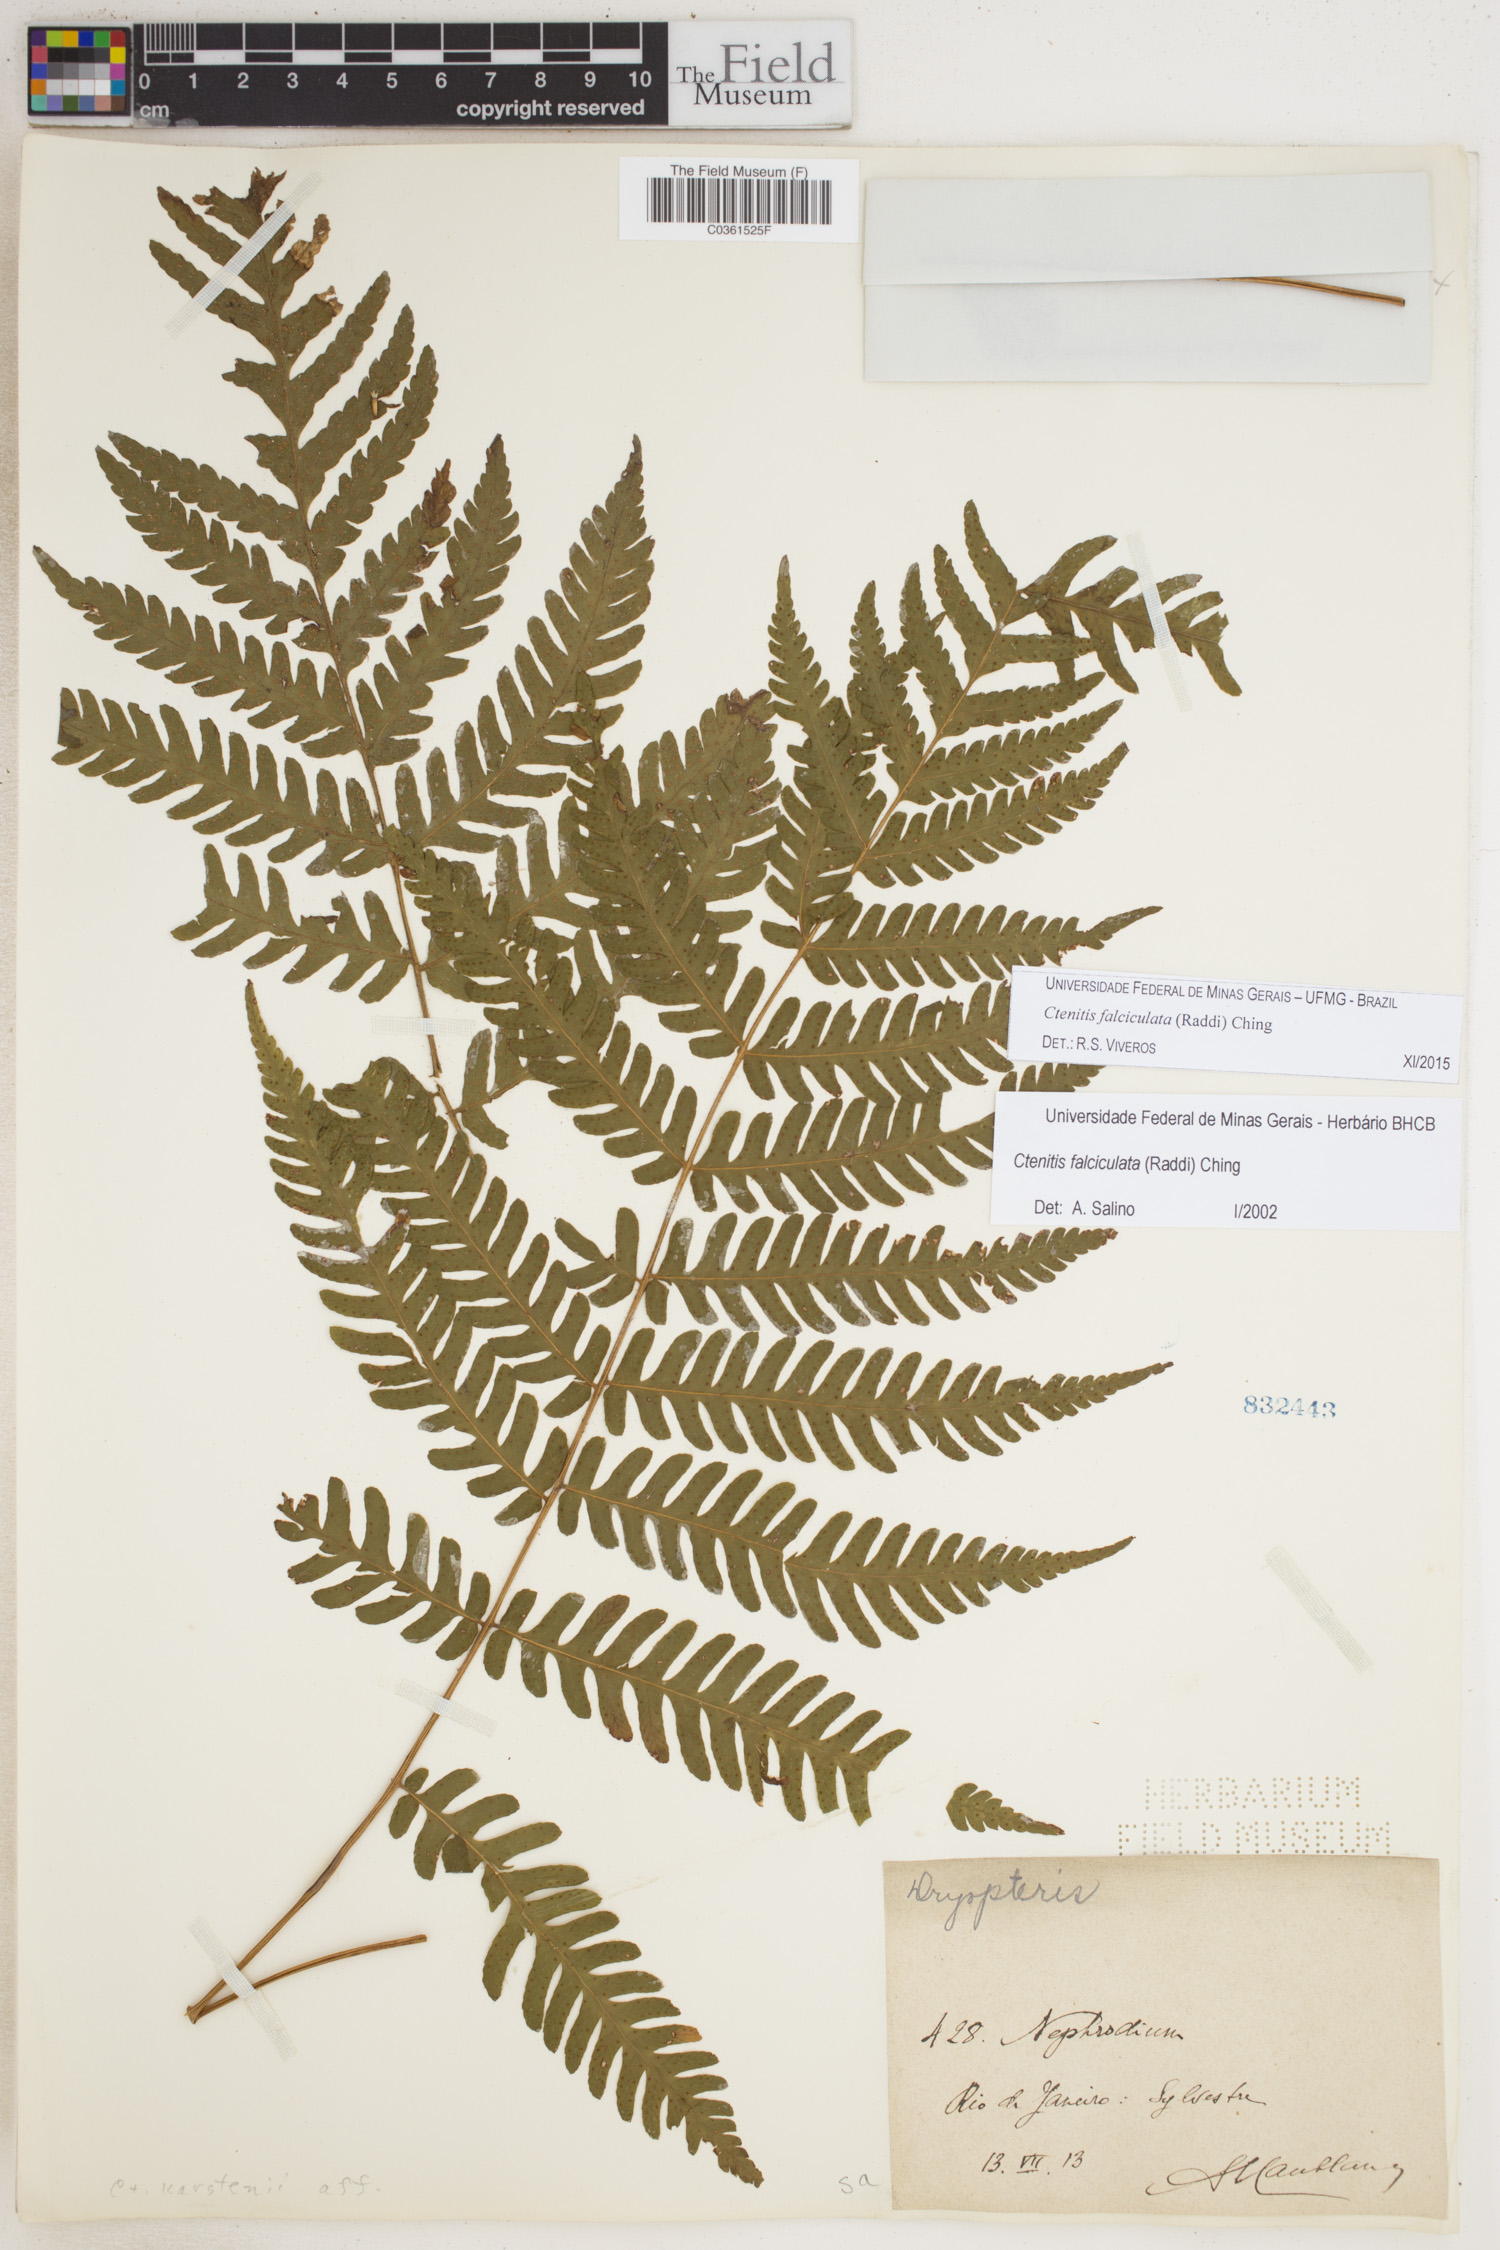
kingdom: Plantae
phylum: Tracheophyta
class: Polypodiopsida
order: Polypodiales
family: Dryopteridaceae
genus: Ctenitis
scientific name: Ctenitis falciculata
